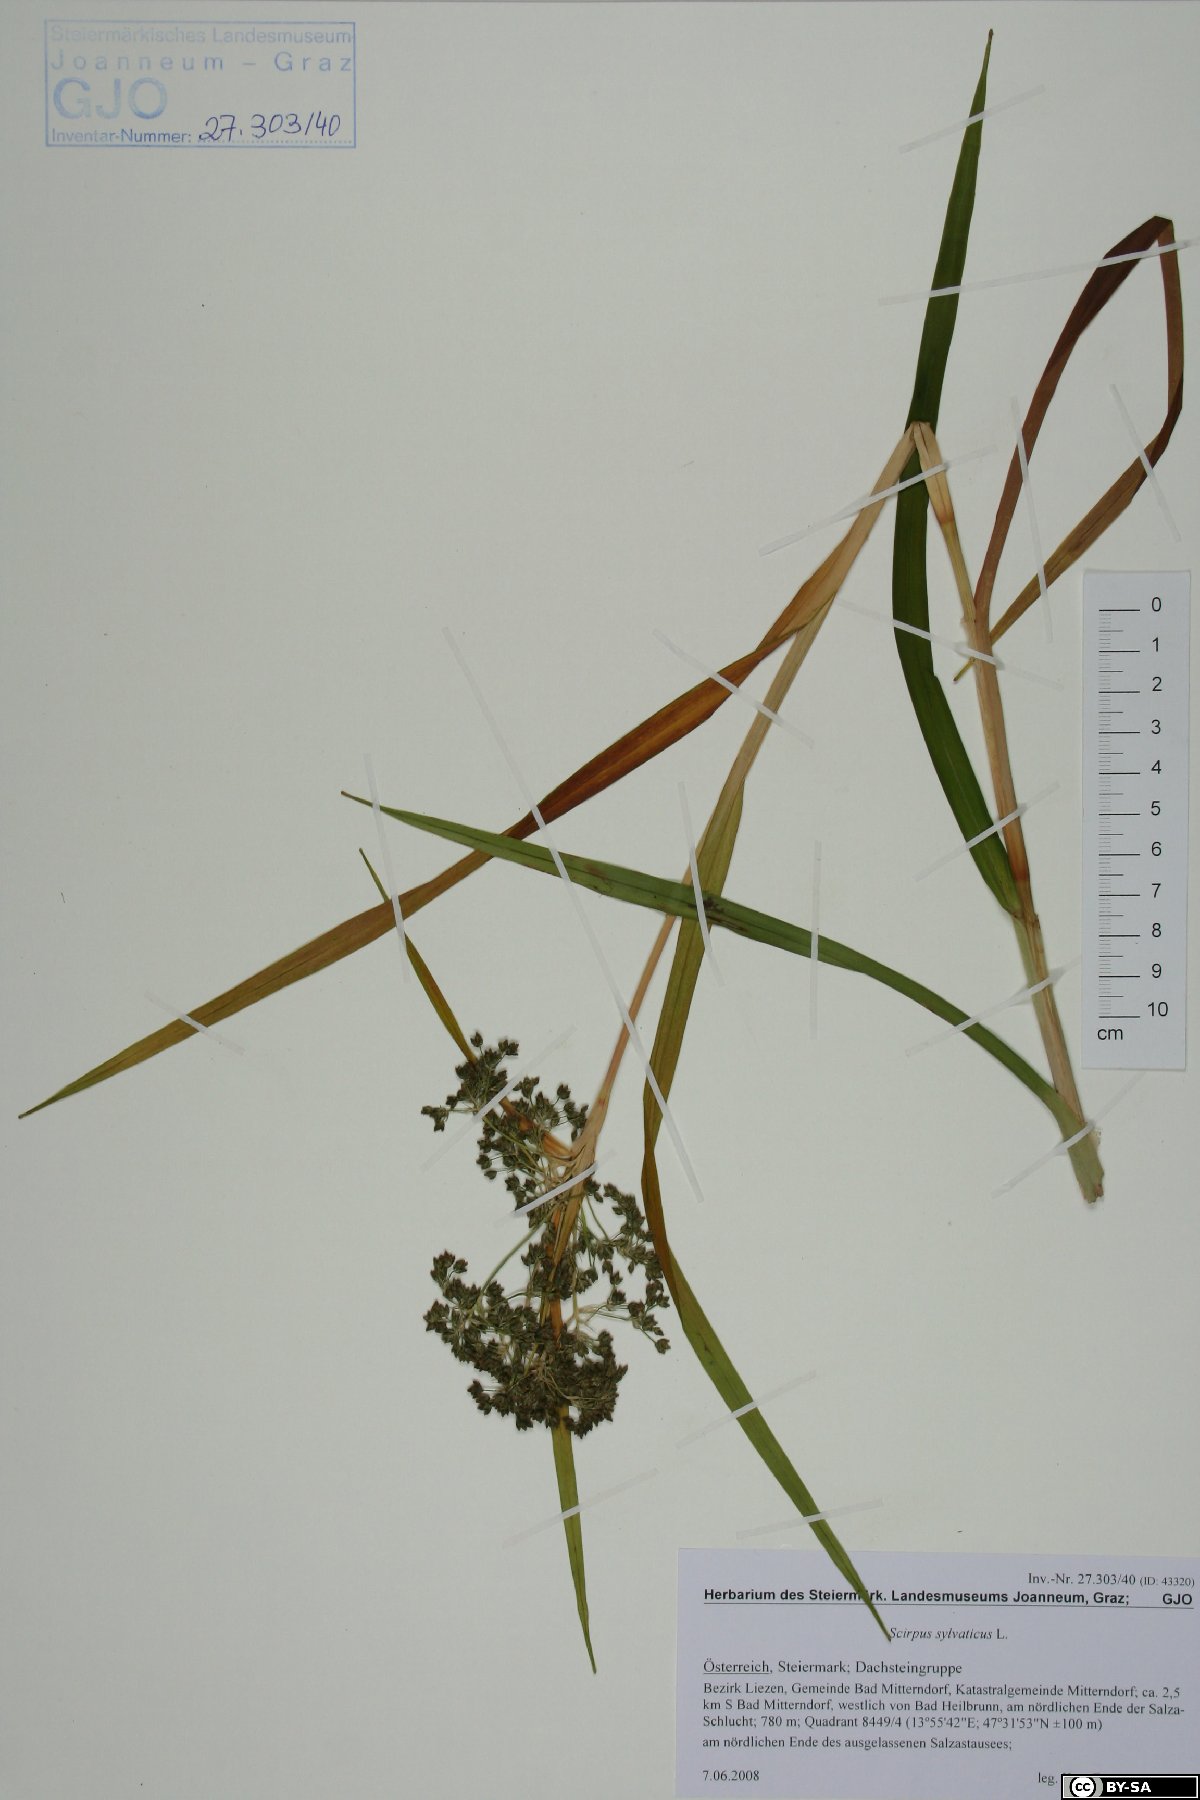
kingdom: Plantae
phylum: Tracheophyta
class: Liliopsida
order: Poales
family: Cyperaceae
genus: Scirpus
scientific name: Scirpus sylvaticus
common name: Wood club-rush
